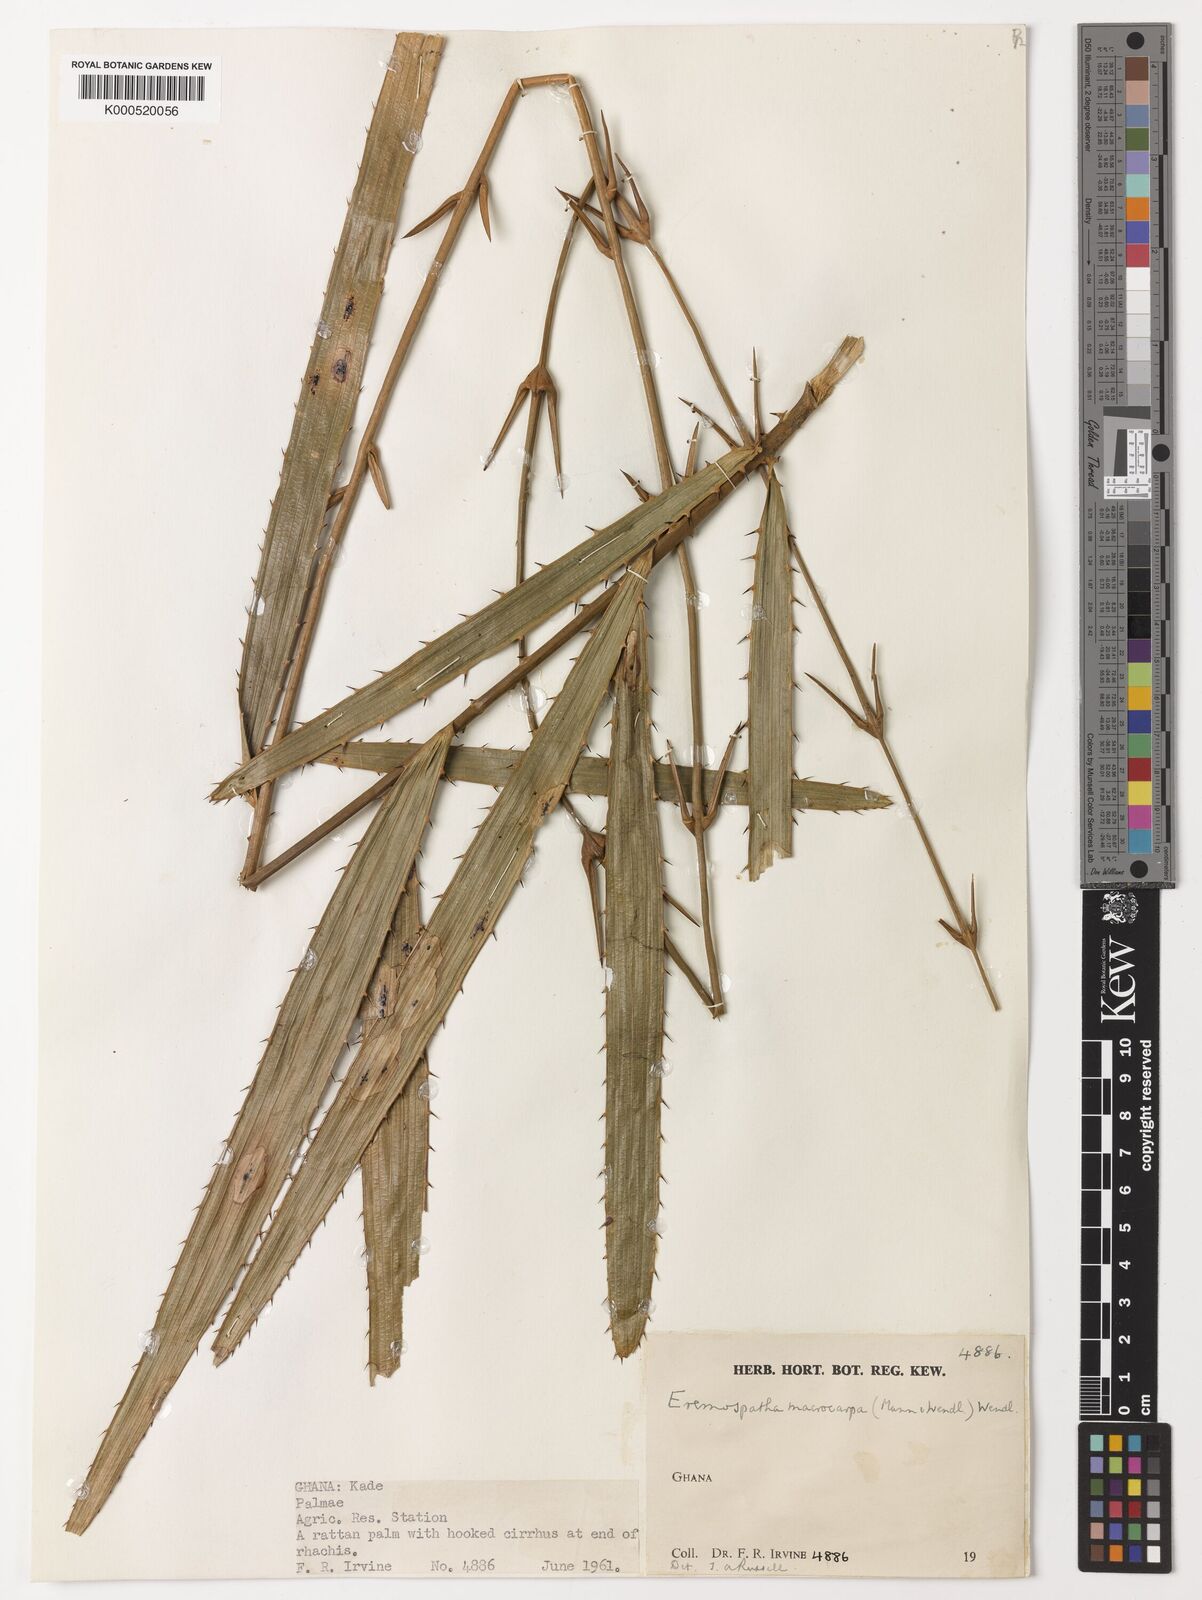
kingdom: Plantae
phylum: Tracheophyta
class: Liliopsida
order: Arecales
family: Arecaceae
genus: Eremospatha
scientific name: Eremospatha
